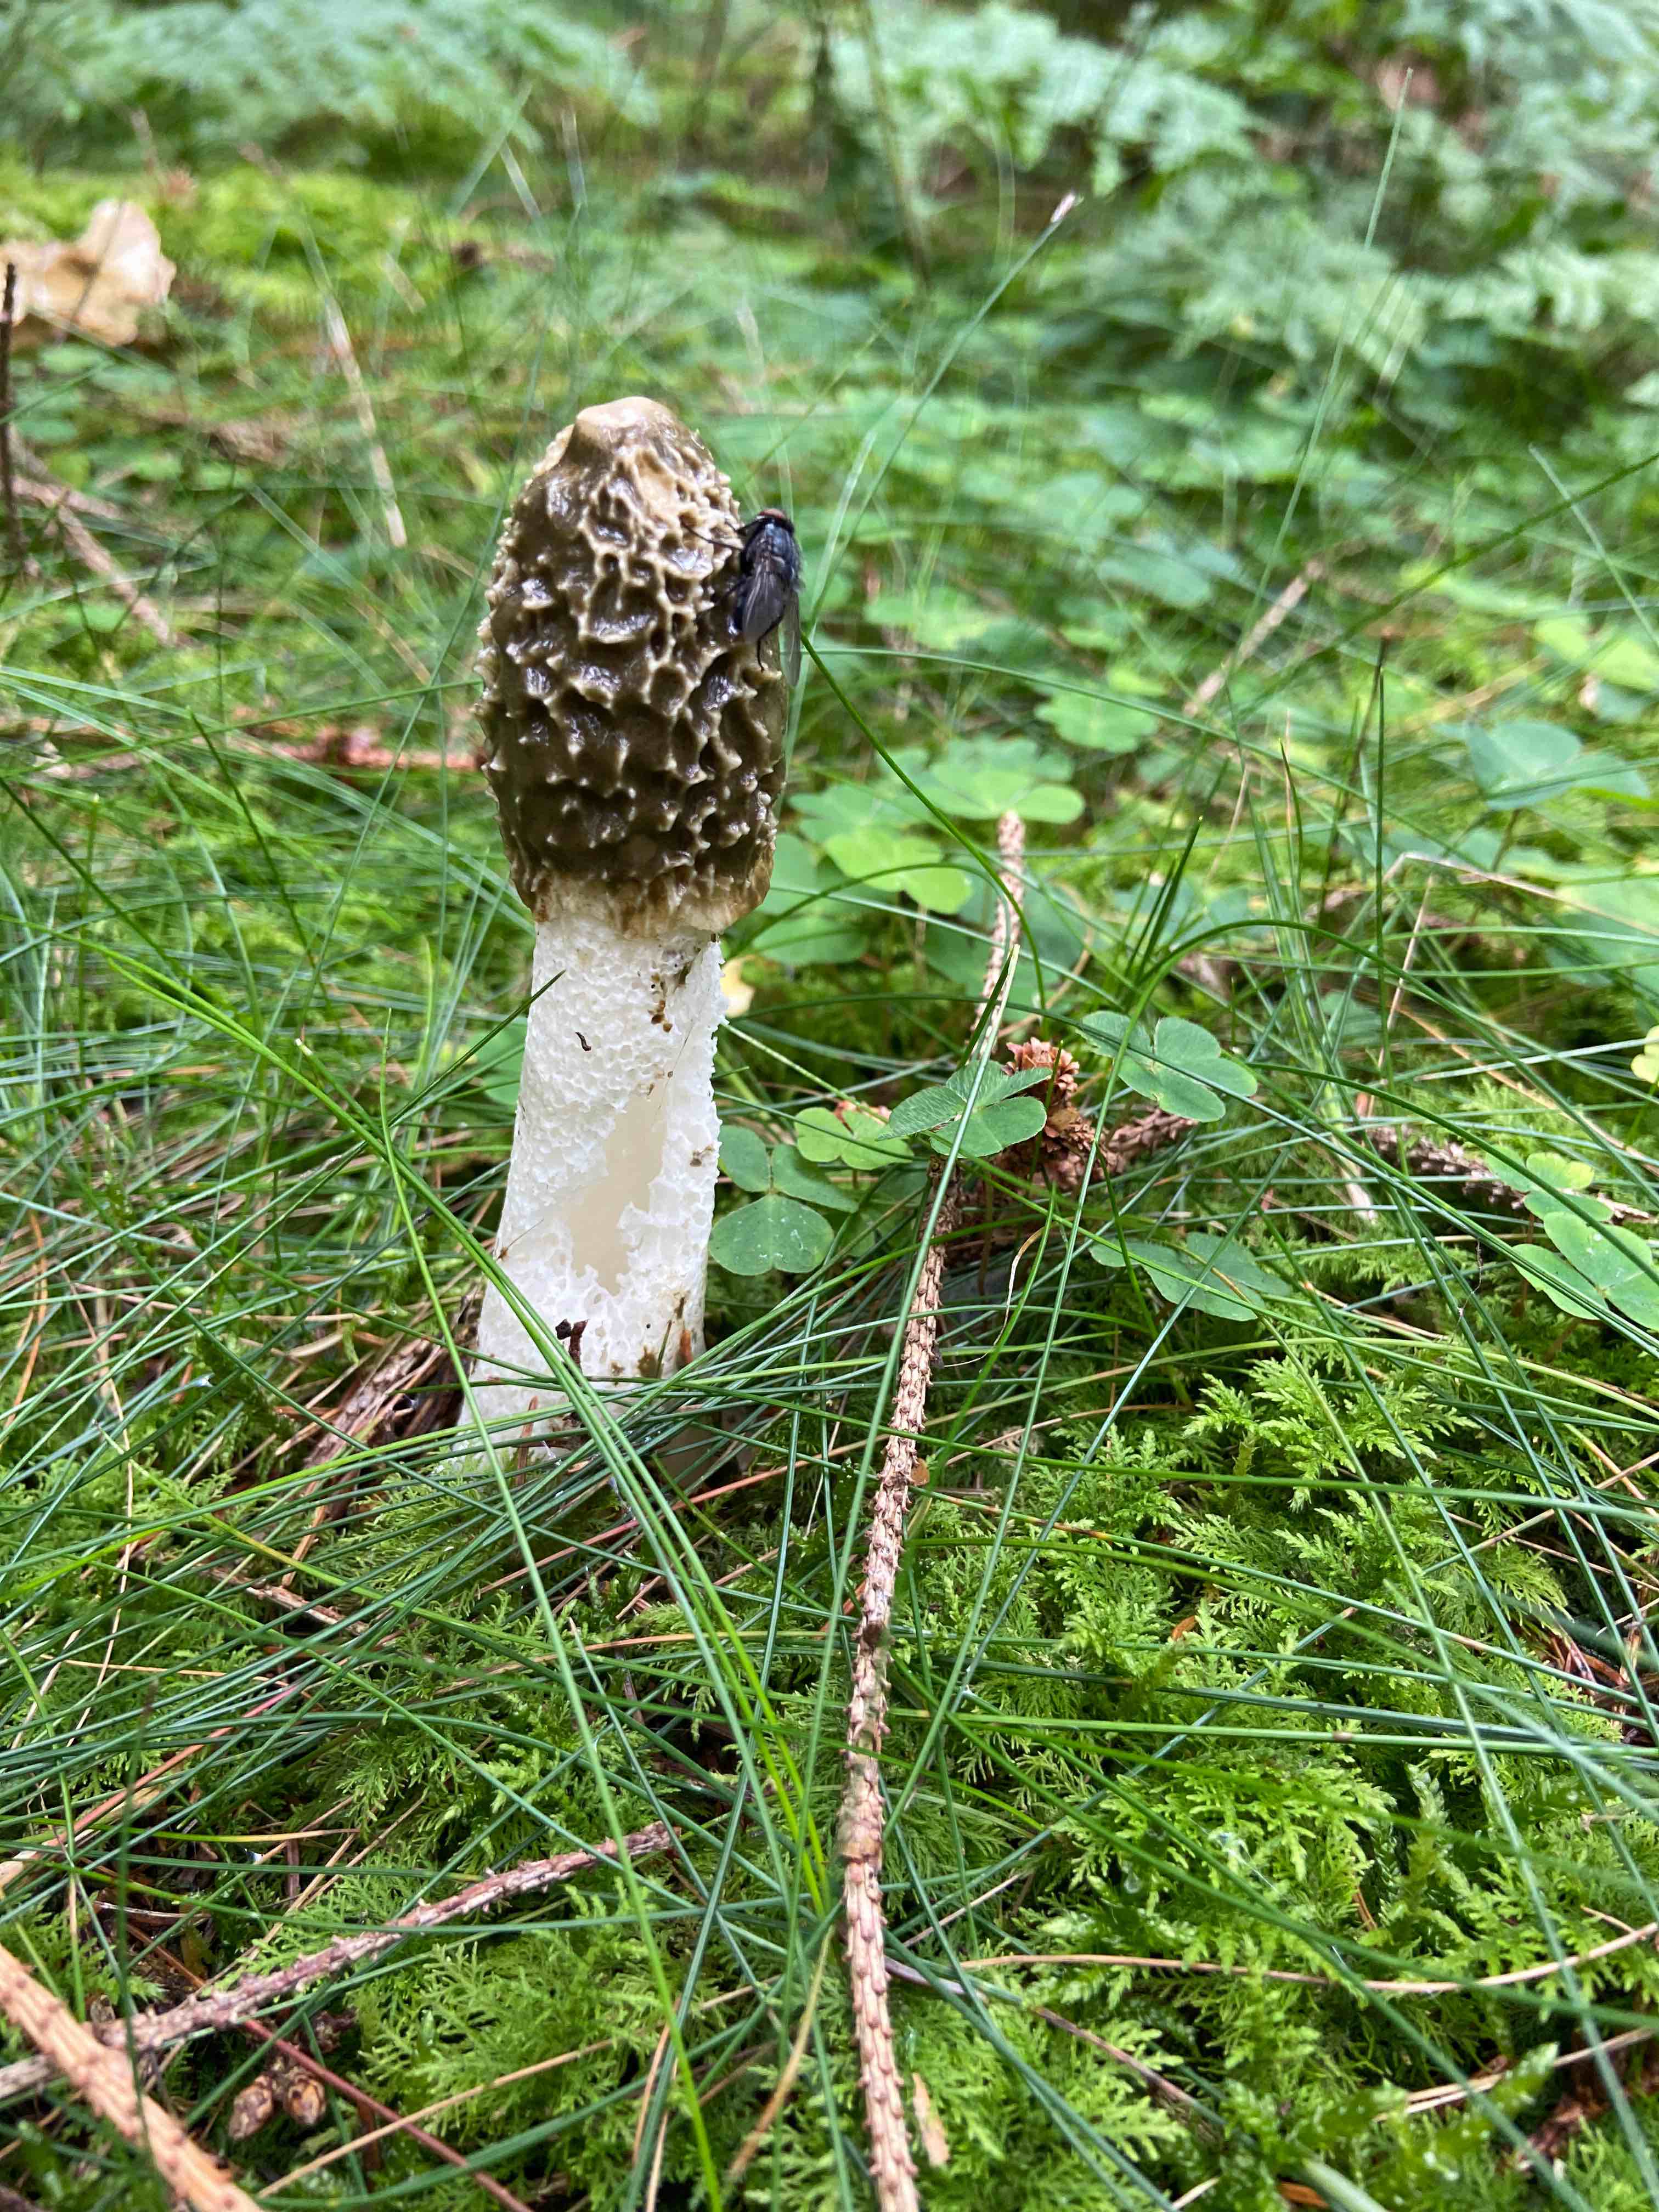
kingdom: Fungi
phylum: Basidiomycota
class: Agaricomycetes
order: Phallales
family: Phallaceae
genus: Phallus
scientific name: Phallus impudicus
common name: almindelig stinksvamp
